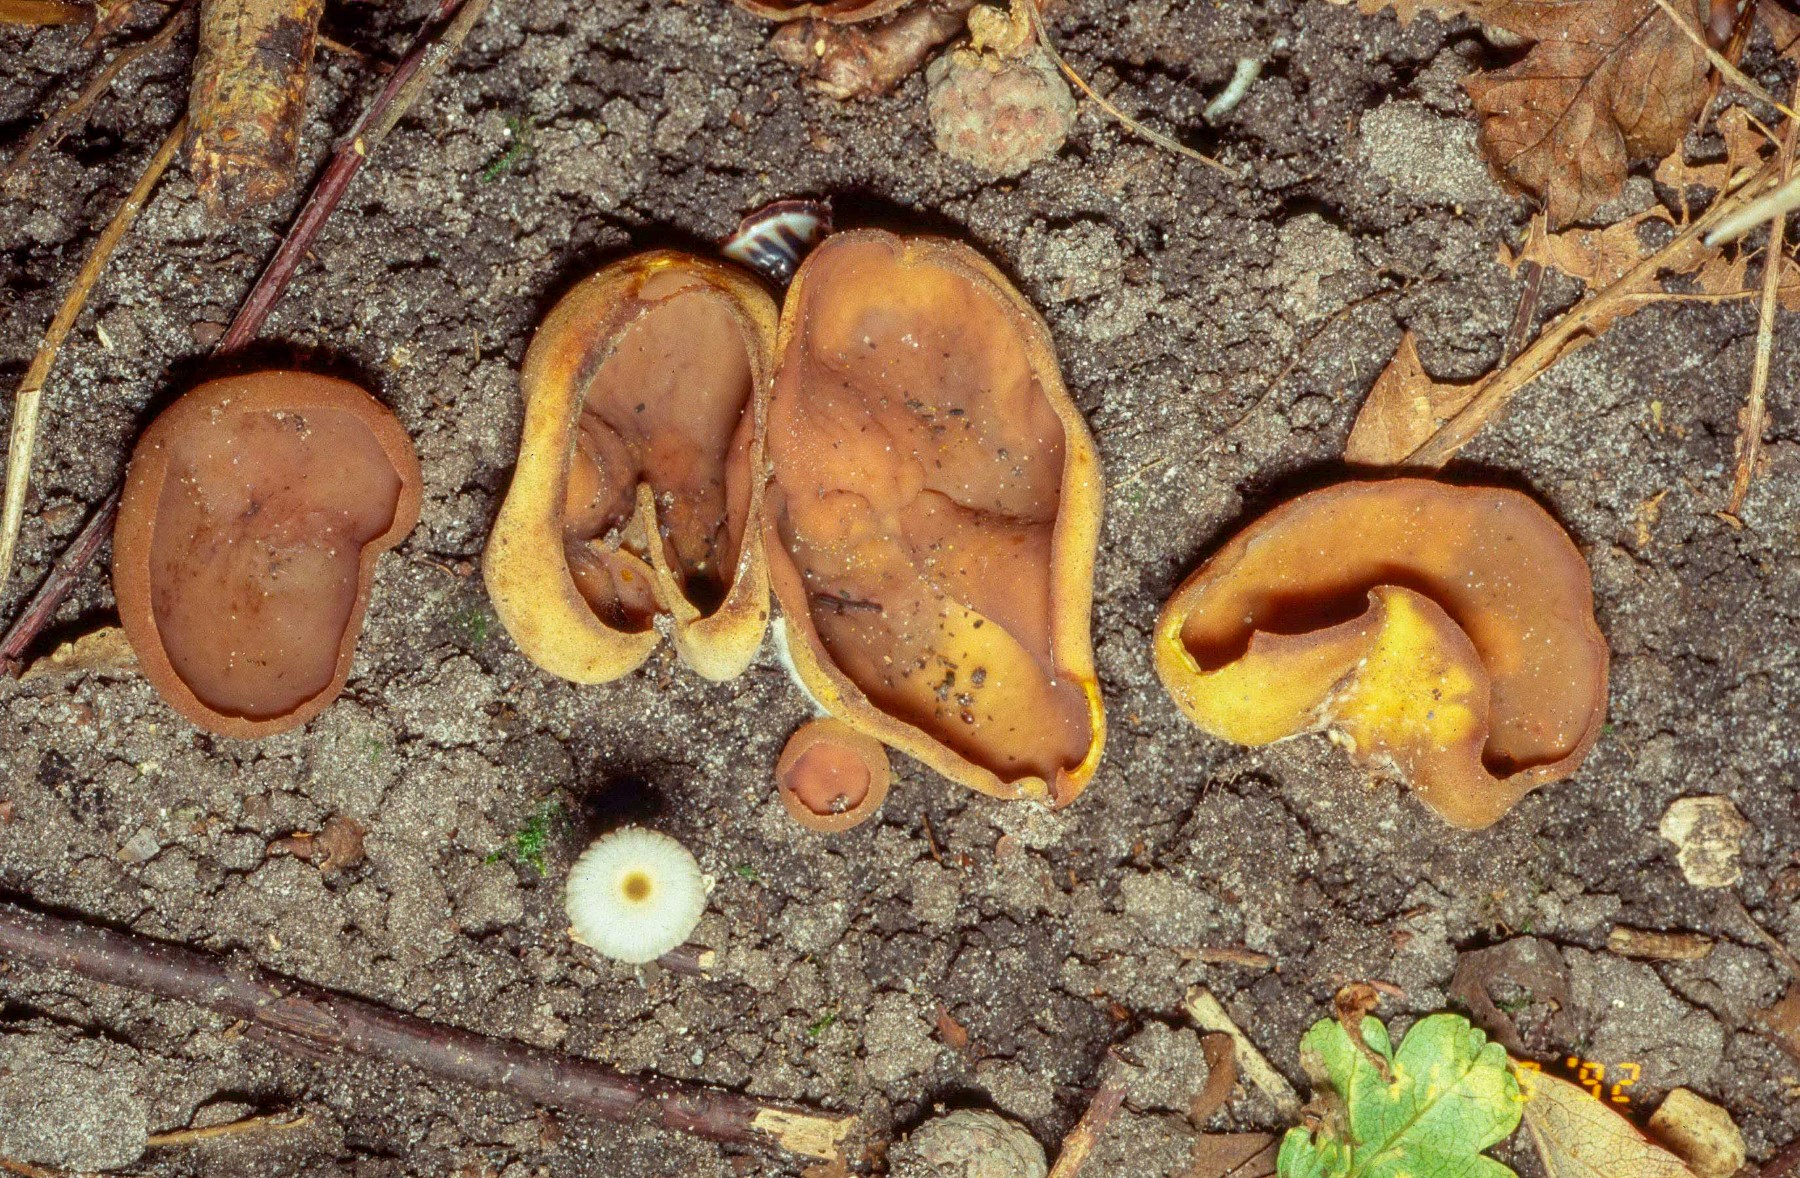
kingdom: Fungi
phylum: Ascomycota
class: Pezizomycetes
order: Pezizales
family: Pezizaceae
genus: Paragalactinia
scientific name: Paragalactinia michelii
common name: gulkødet bægersvamp
